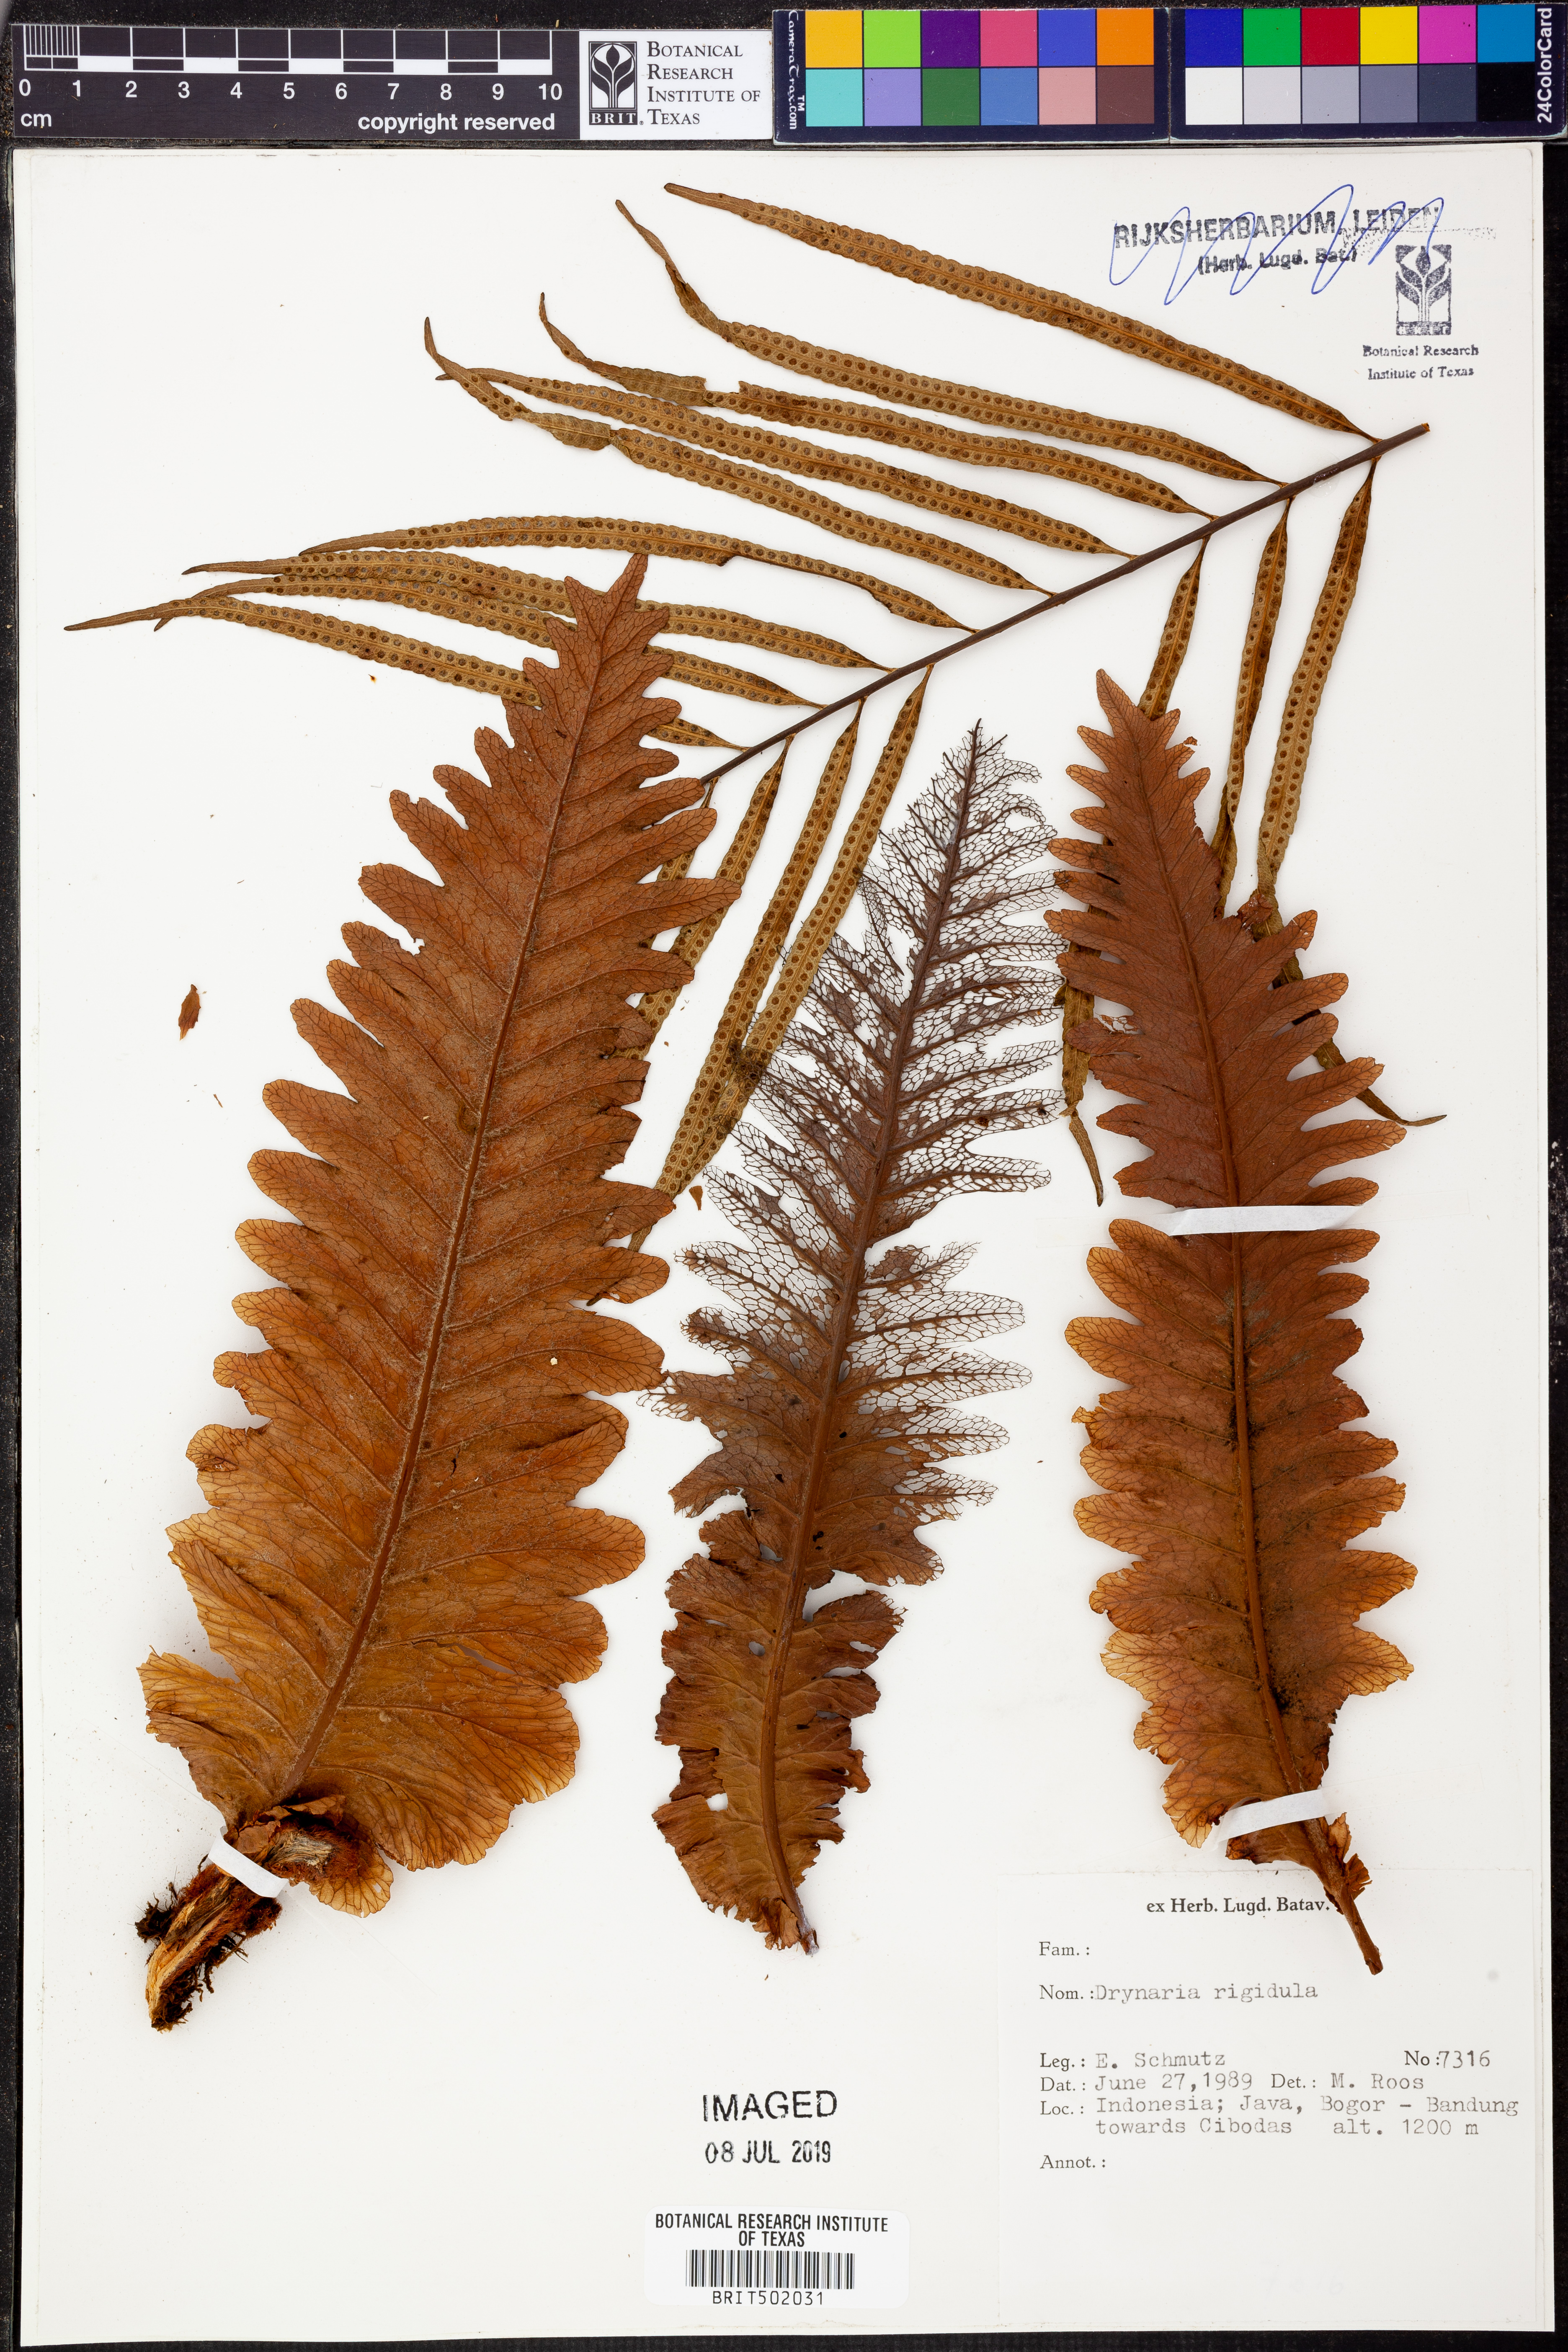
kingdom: Plantae
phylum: Tracheophyta
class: Polypodiopsida
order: Polypodiales
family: Polypodiaceae
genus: Drynaria
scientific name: Drynaria rigidula
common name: Basket fern
